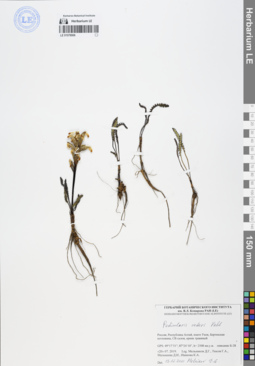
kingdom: Plantae
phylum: Tracheophyta
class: Magnoliopsida
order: Lamiales
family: Orobanchaceae
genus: Pedicularis
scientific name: Pedicularis oederi
